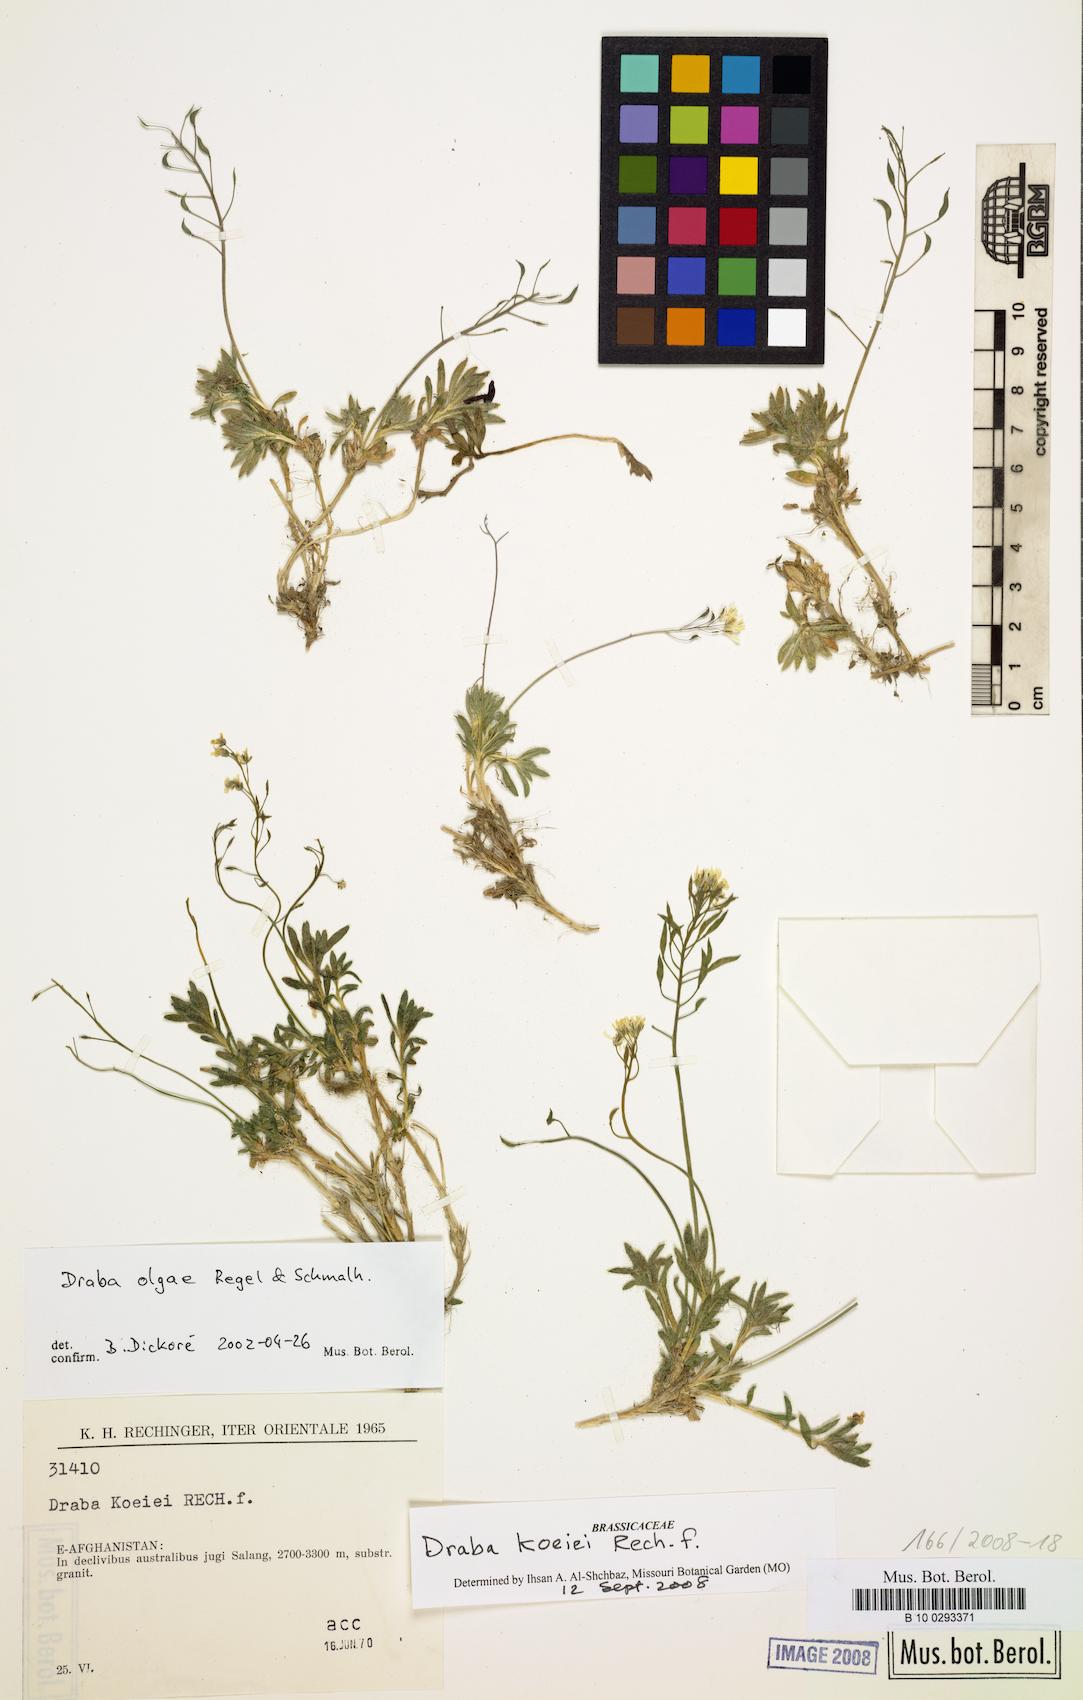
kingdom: Plantae
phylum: Tracheophyta
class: Magnoliopsida
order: Brassicales
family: Brassicaceae
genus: Draba
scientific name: Draba olgae
